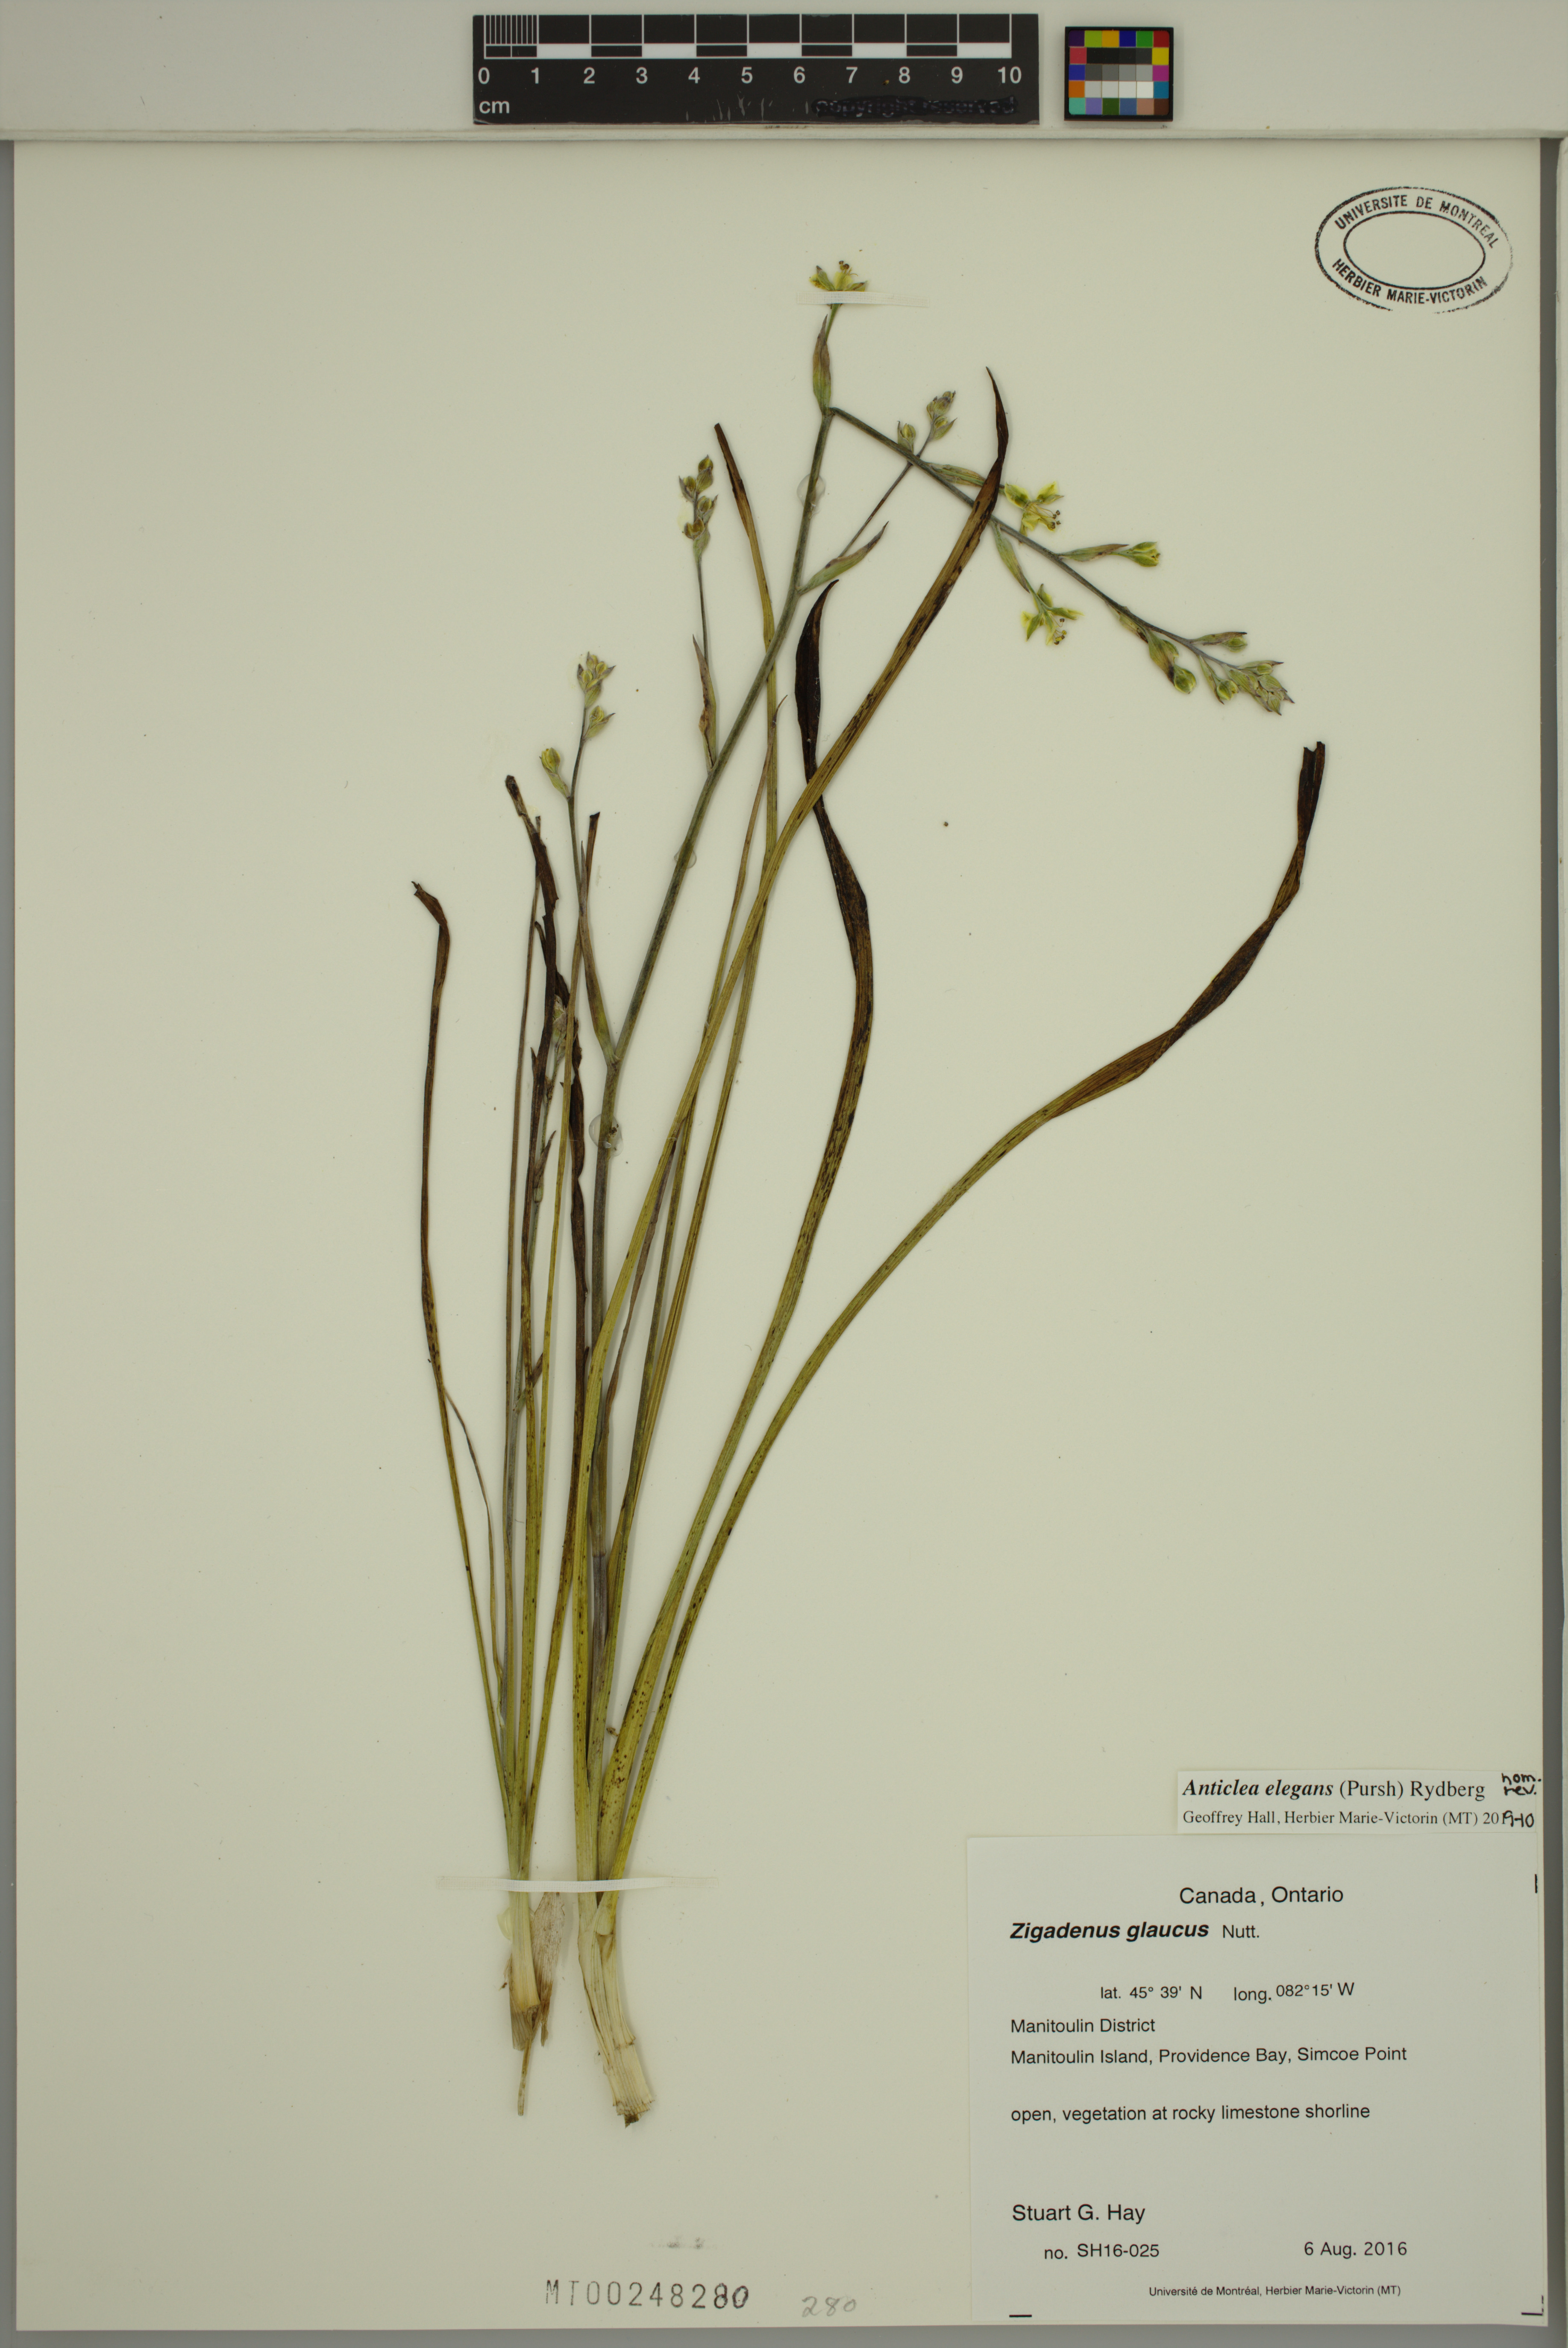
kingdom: Plantae
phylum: Tracheophyta
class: Liliopsida
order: Liliales
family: Melanthiaceae
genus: Anticlea
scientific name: Anticlea elegans
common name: Mountain death camas
